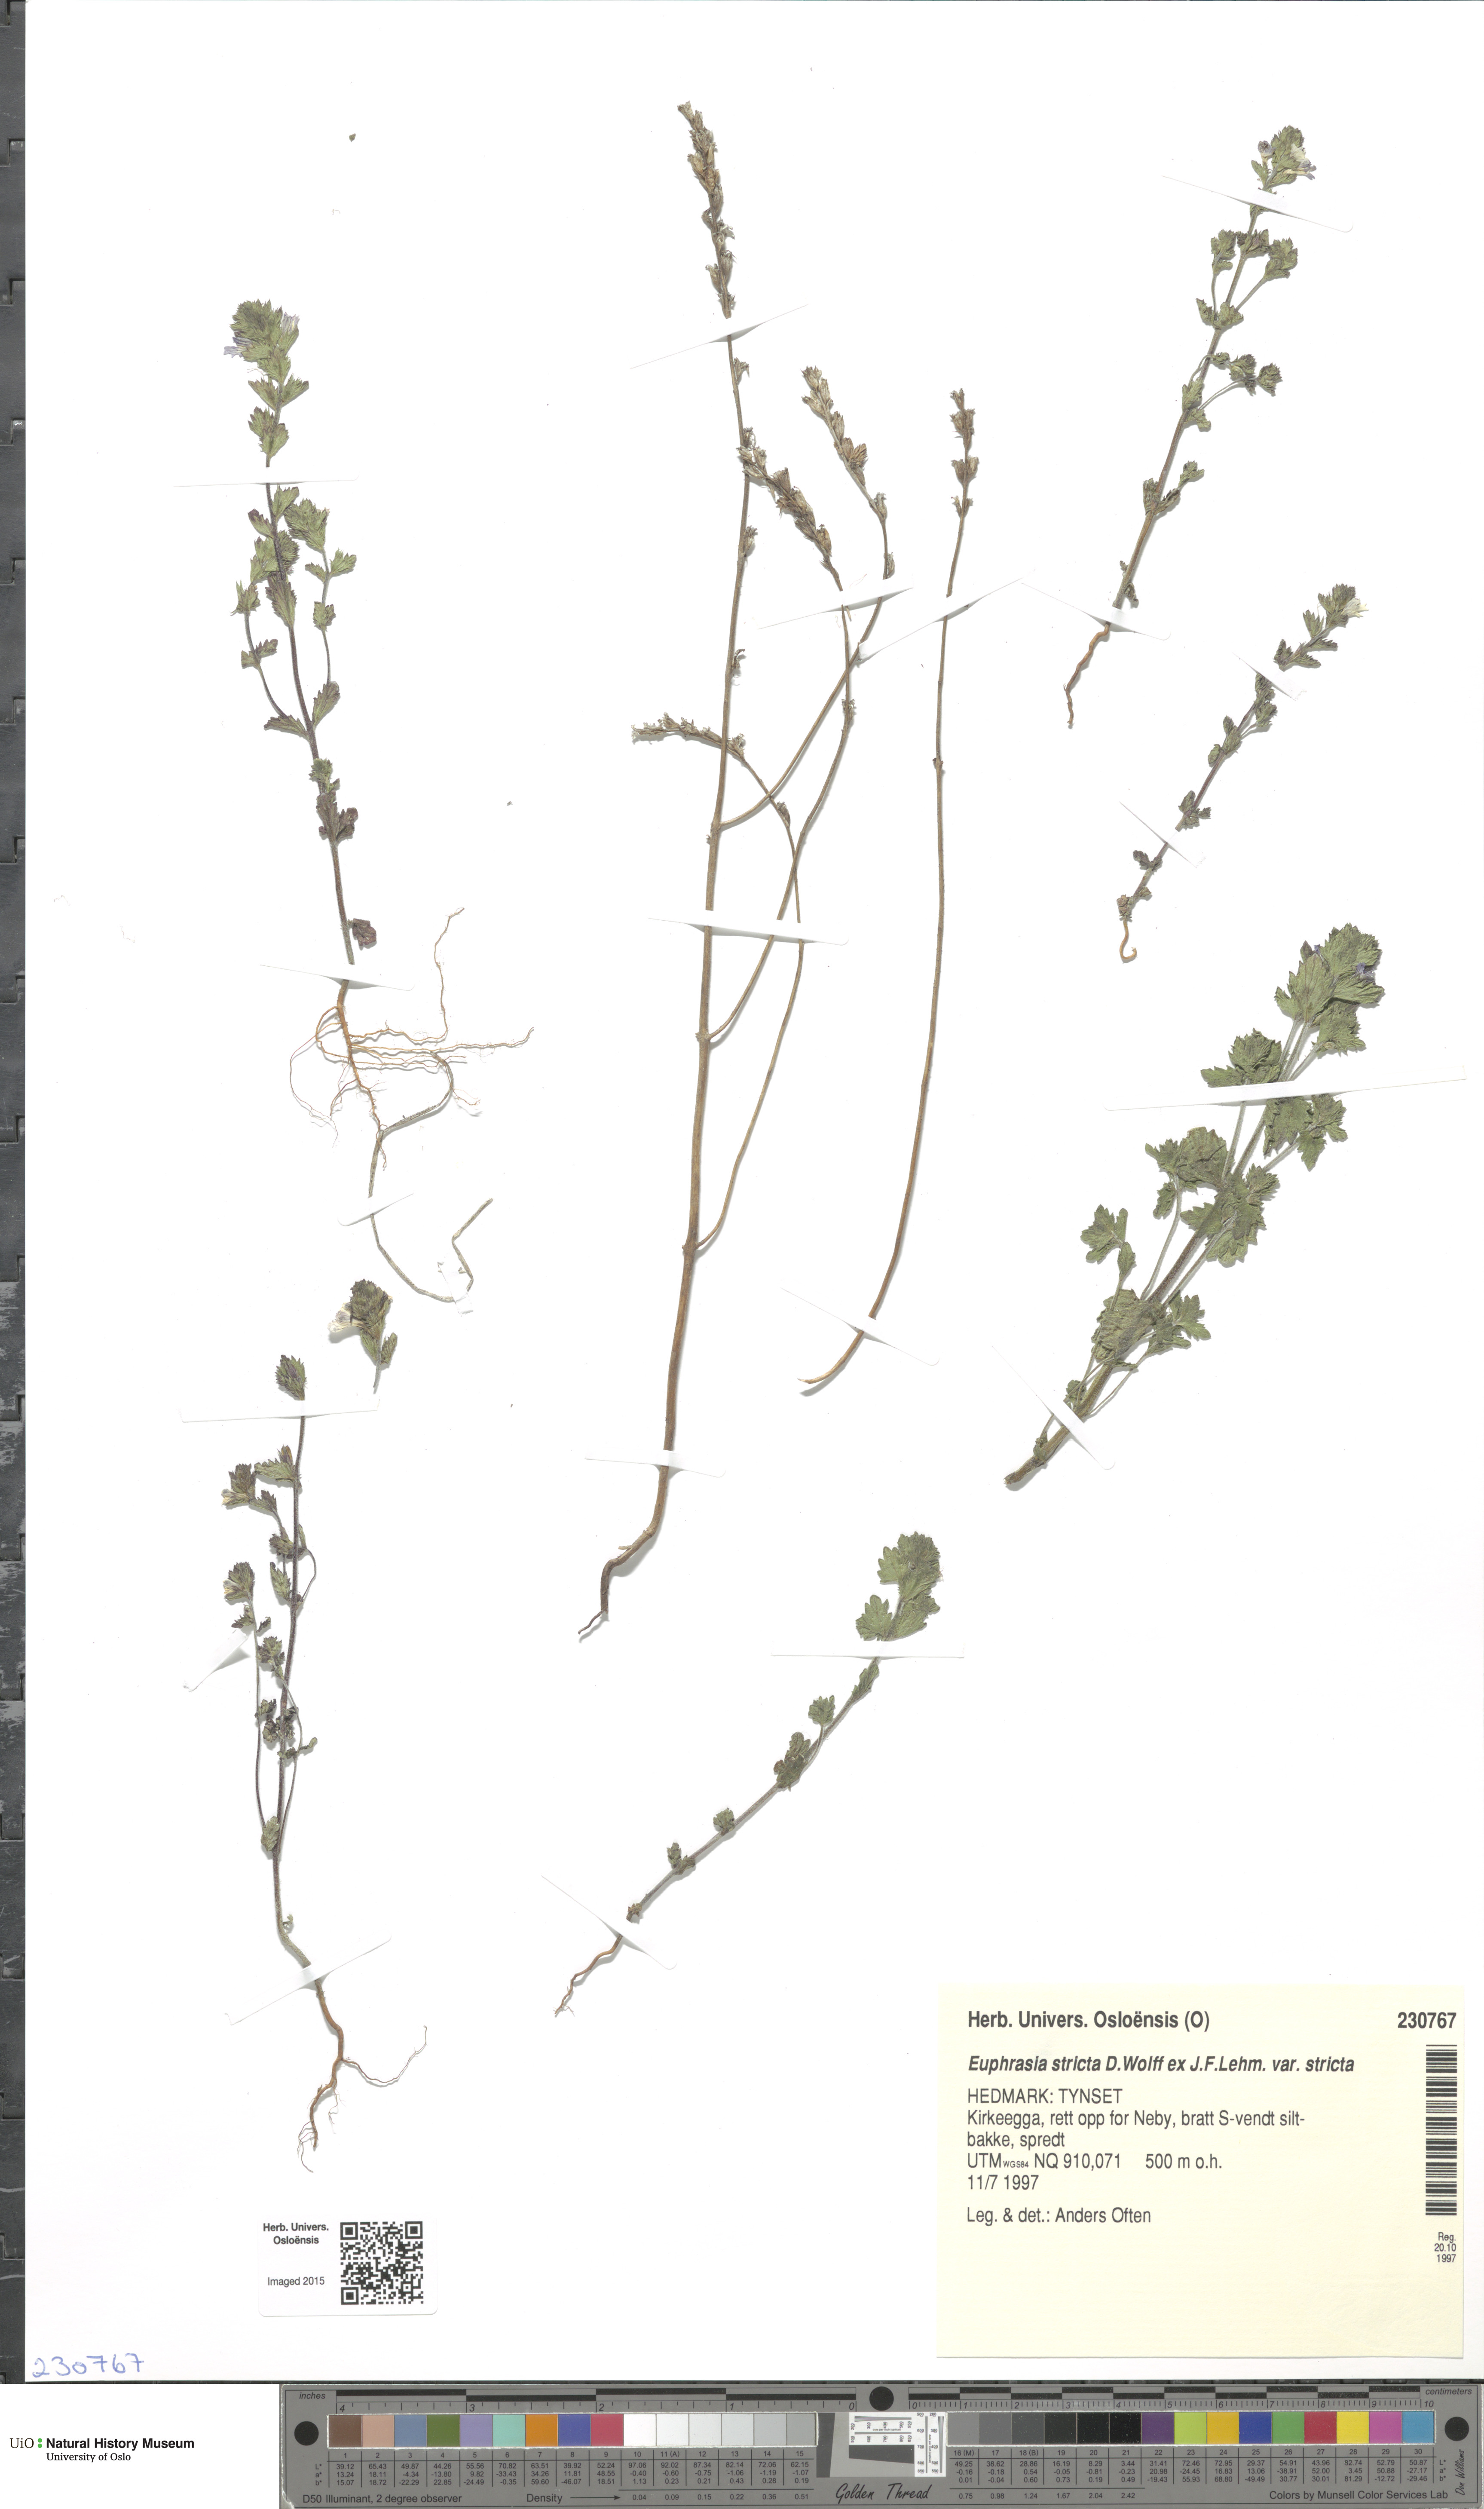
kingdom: Plantae
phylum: Tracheophyta
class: Magnoliopsida
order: Lamiales
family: Orobanchaceae
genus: Euphrasia
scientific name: Euphrasia stricta
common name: Drug eyebright
